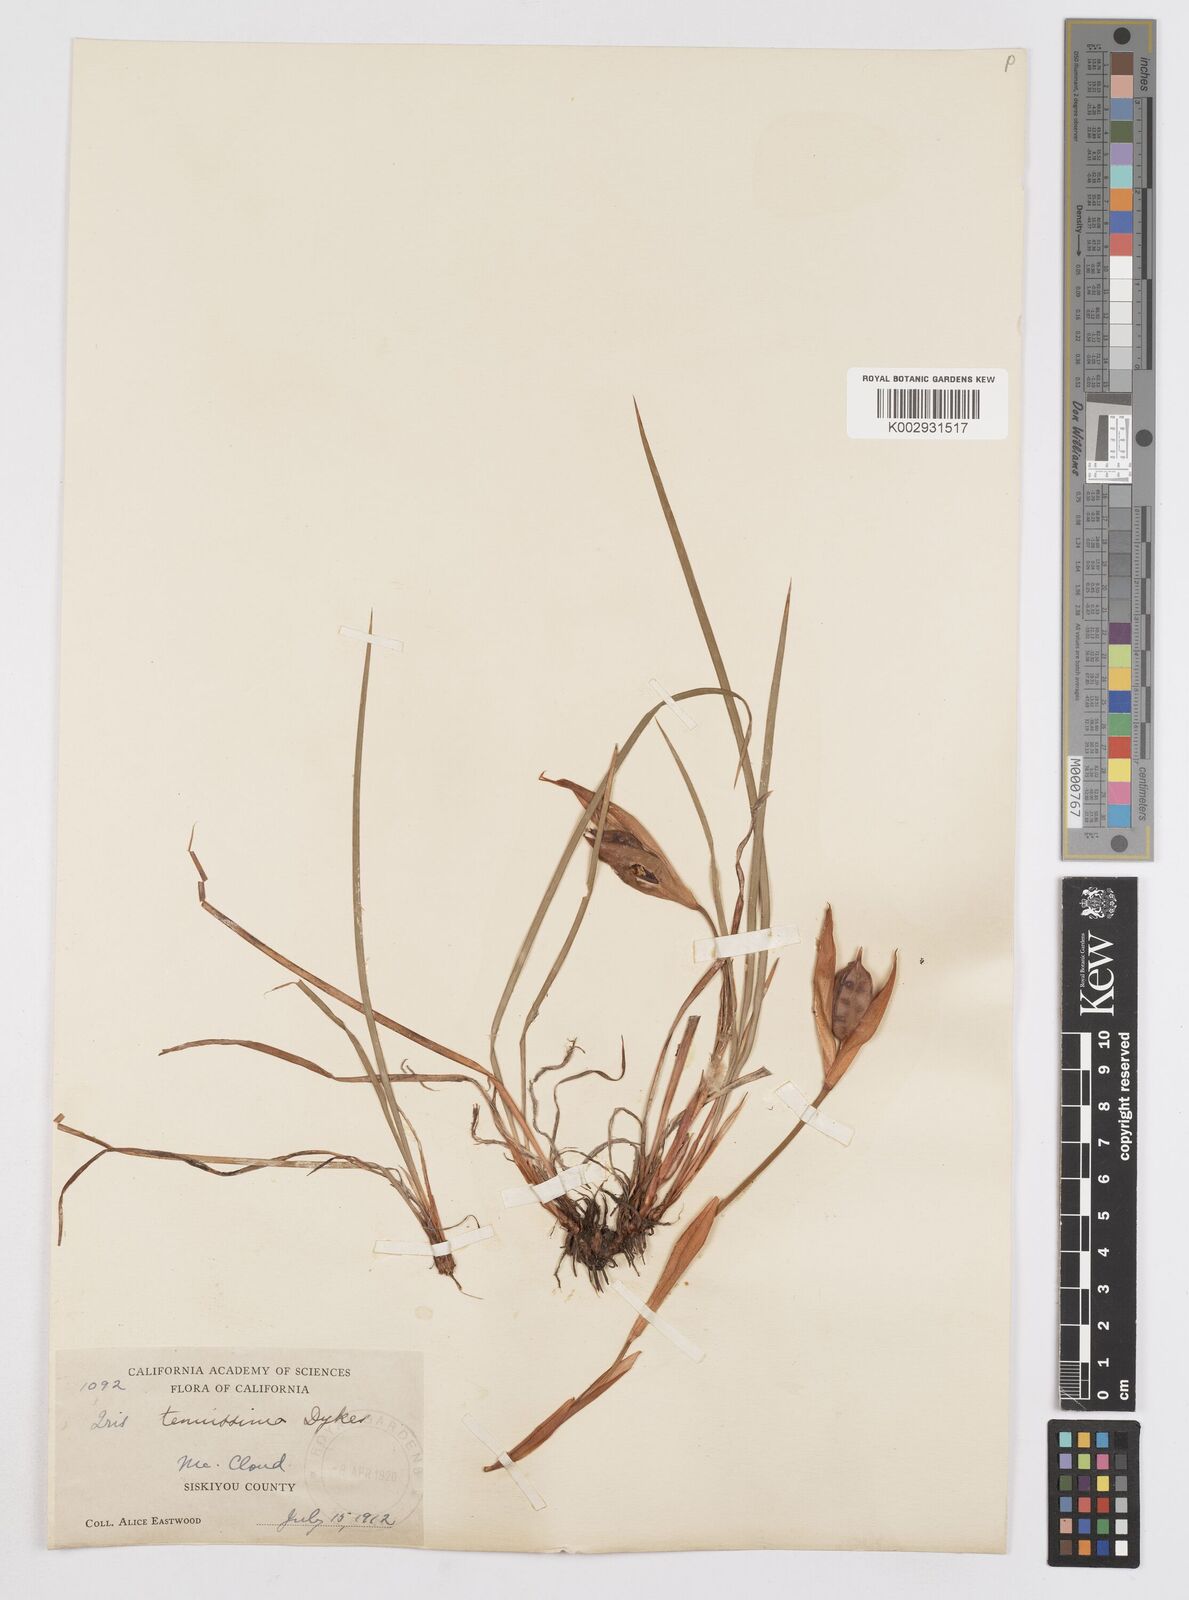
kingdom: Plantae
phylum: Tracheophyta
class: Liliopsida
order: Asparagales
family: Iridaceae
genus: Iris
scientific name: Iris tenuissima
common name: Long-tube iris
